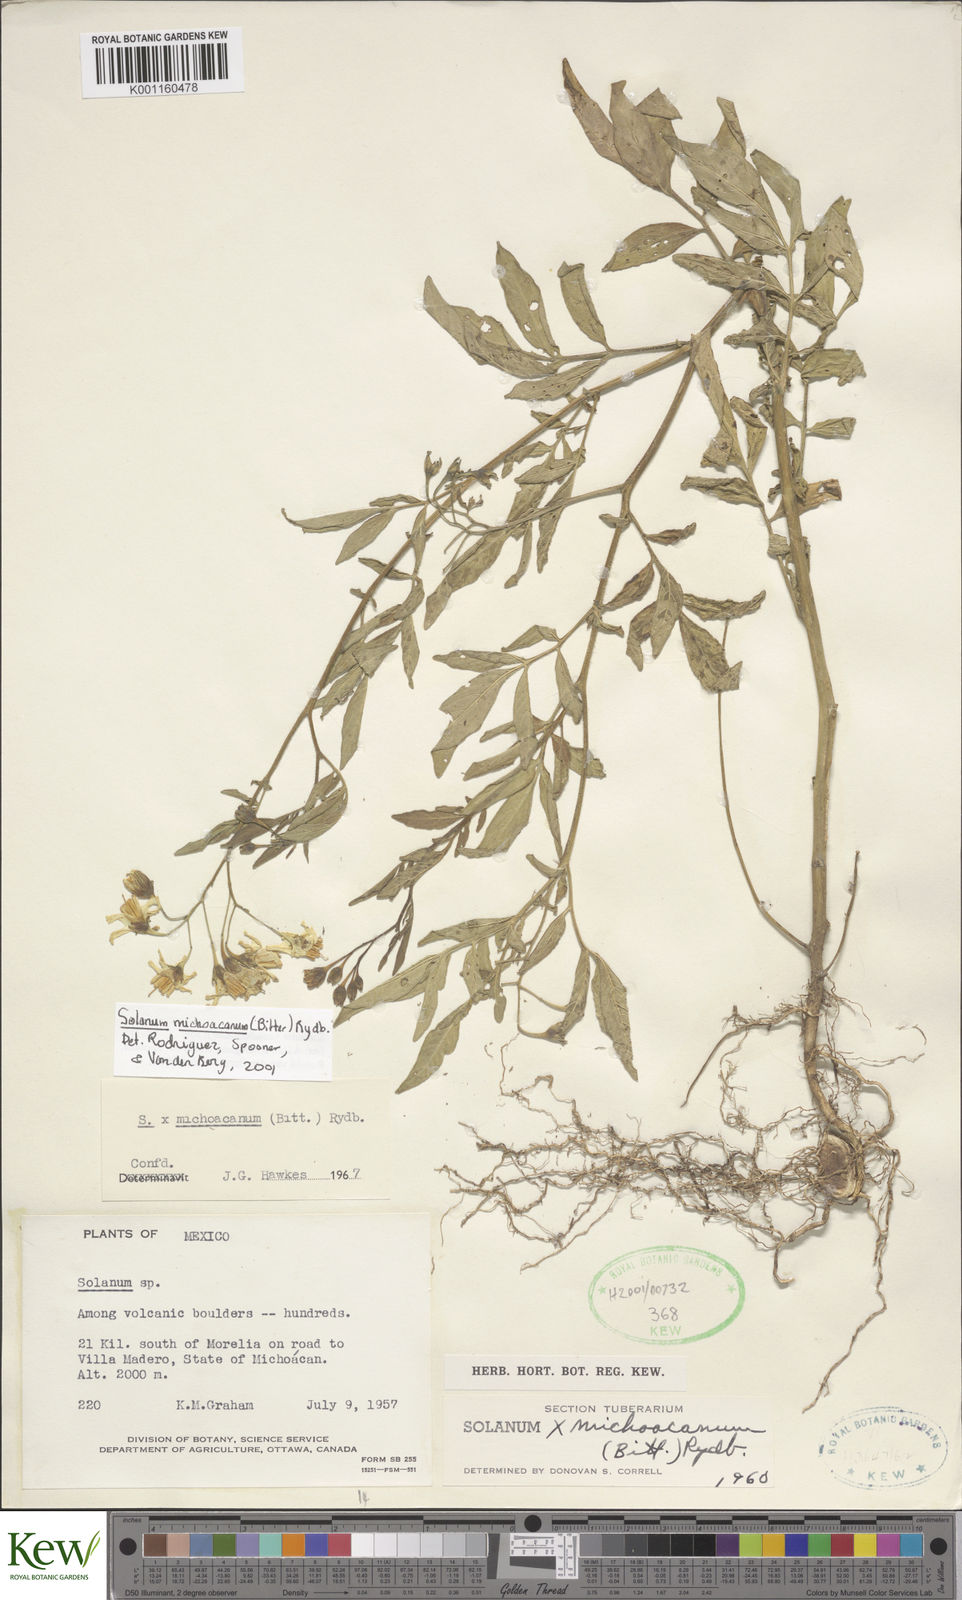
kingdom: Plantae
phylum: Tracheophyta
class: Magnoliopsida
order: Solanales
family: Solanaceae
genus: Solanum
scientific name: Solanum bulbocastanum
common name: Ornamental nightshade
